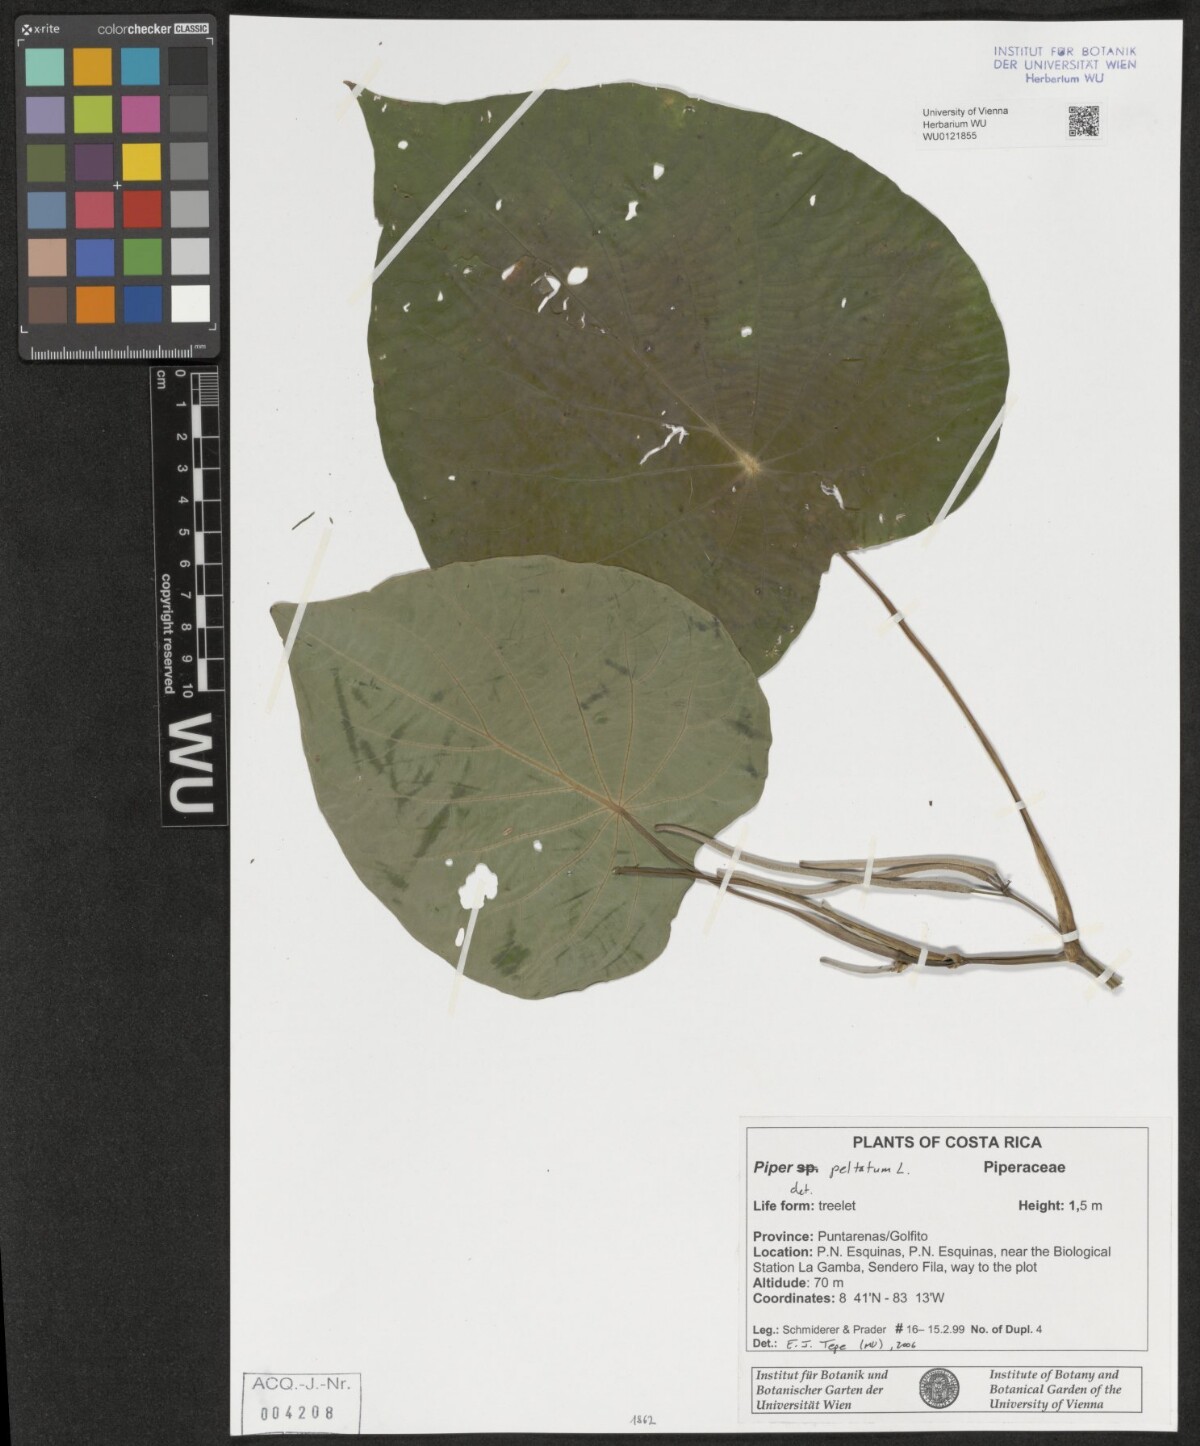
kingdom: Plantae
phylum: Tracheophyta
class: Magnoliopsida
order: Piperales
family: Piperaceae
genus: Piper
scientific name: Piper peltatum
